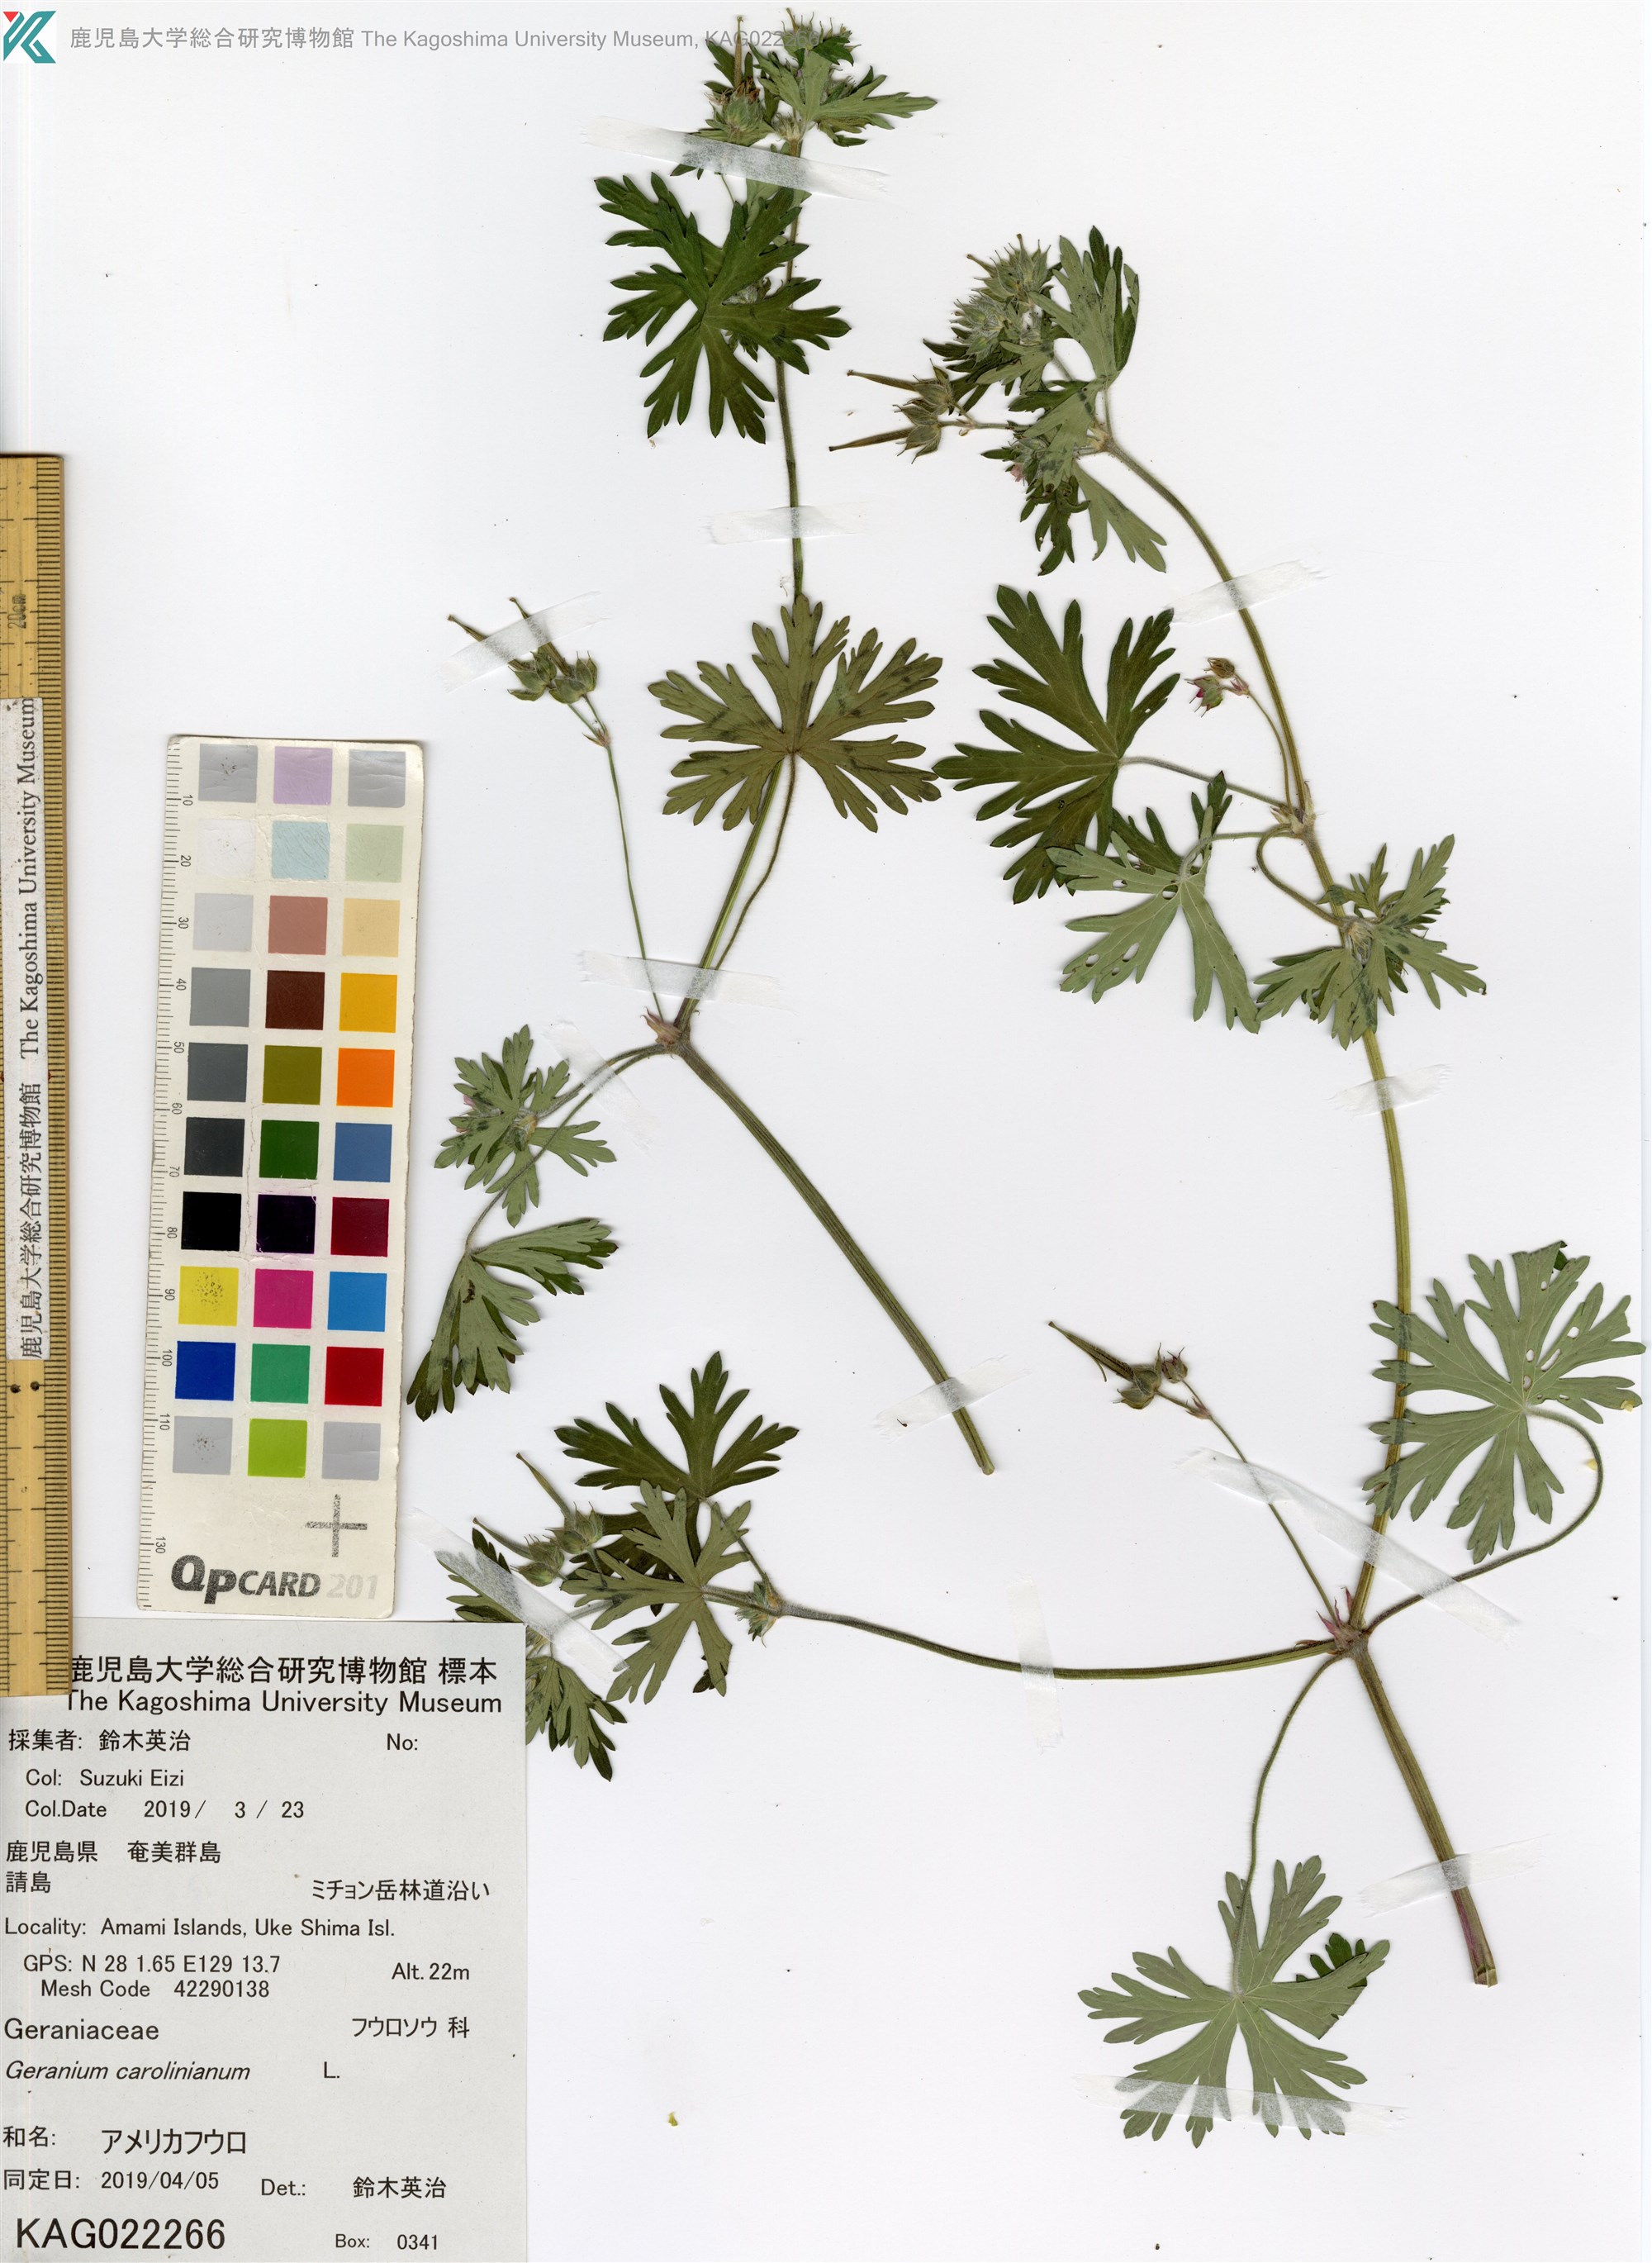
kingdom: Plantae
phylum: Tracheophyta
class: Magnoliopsida
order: Geraniales
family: Geraniaceae
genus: Geranium
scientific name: Geranium carolinianum
